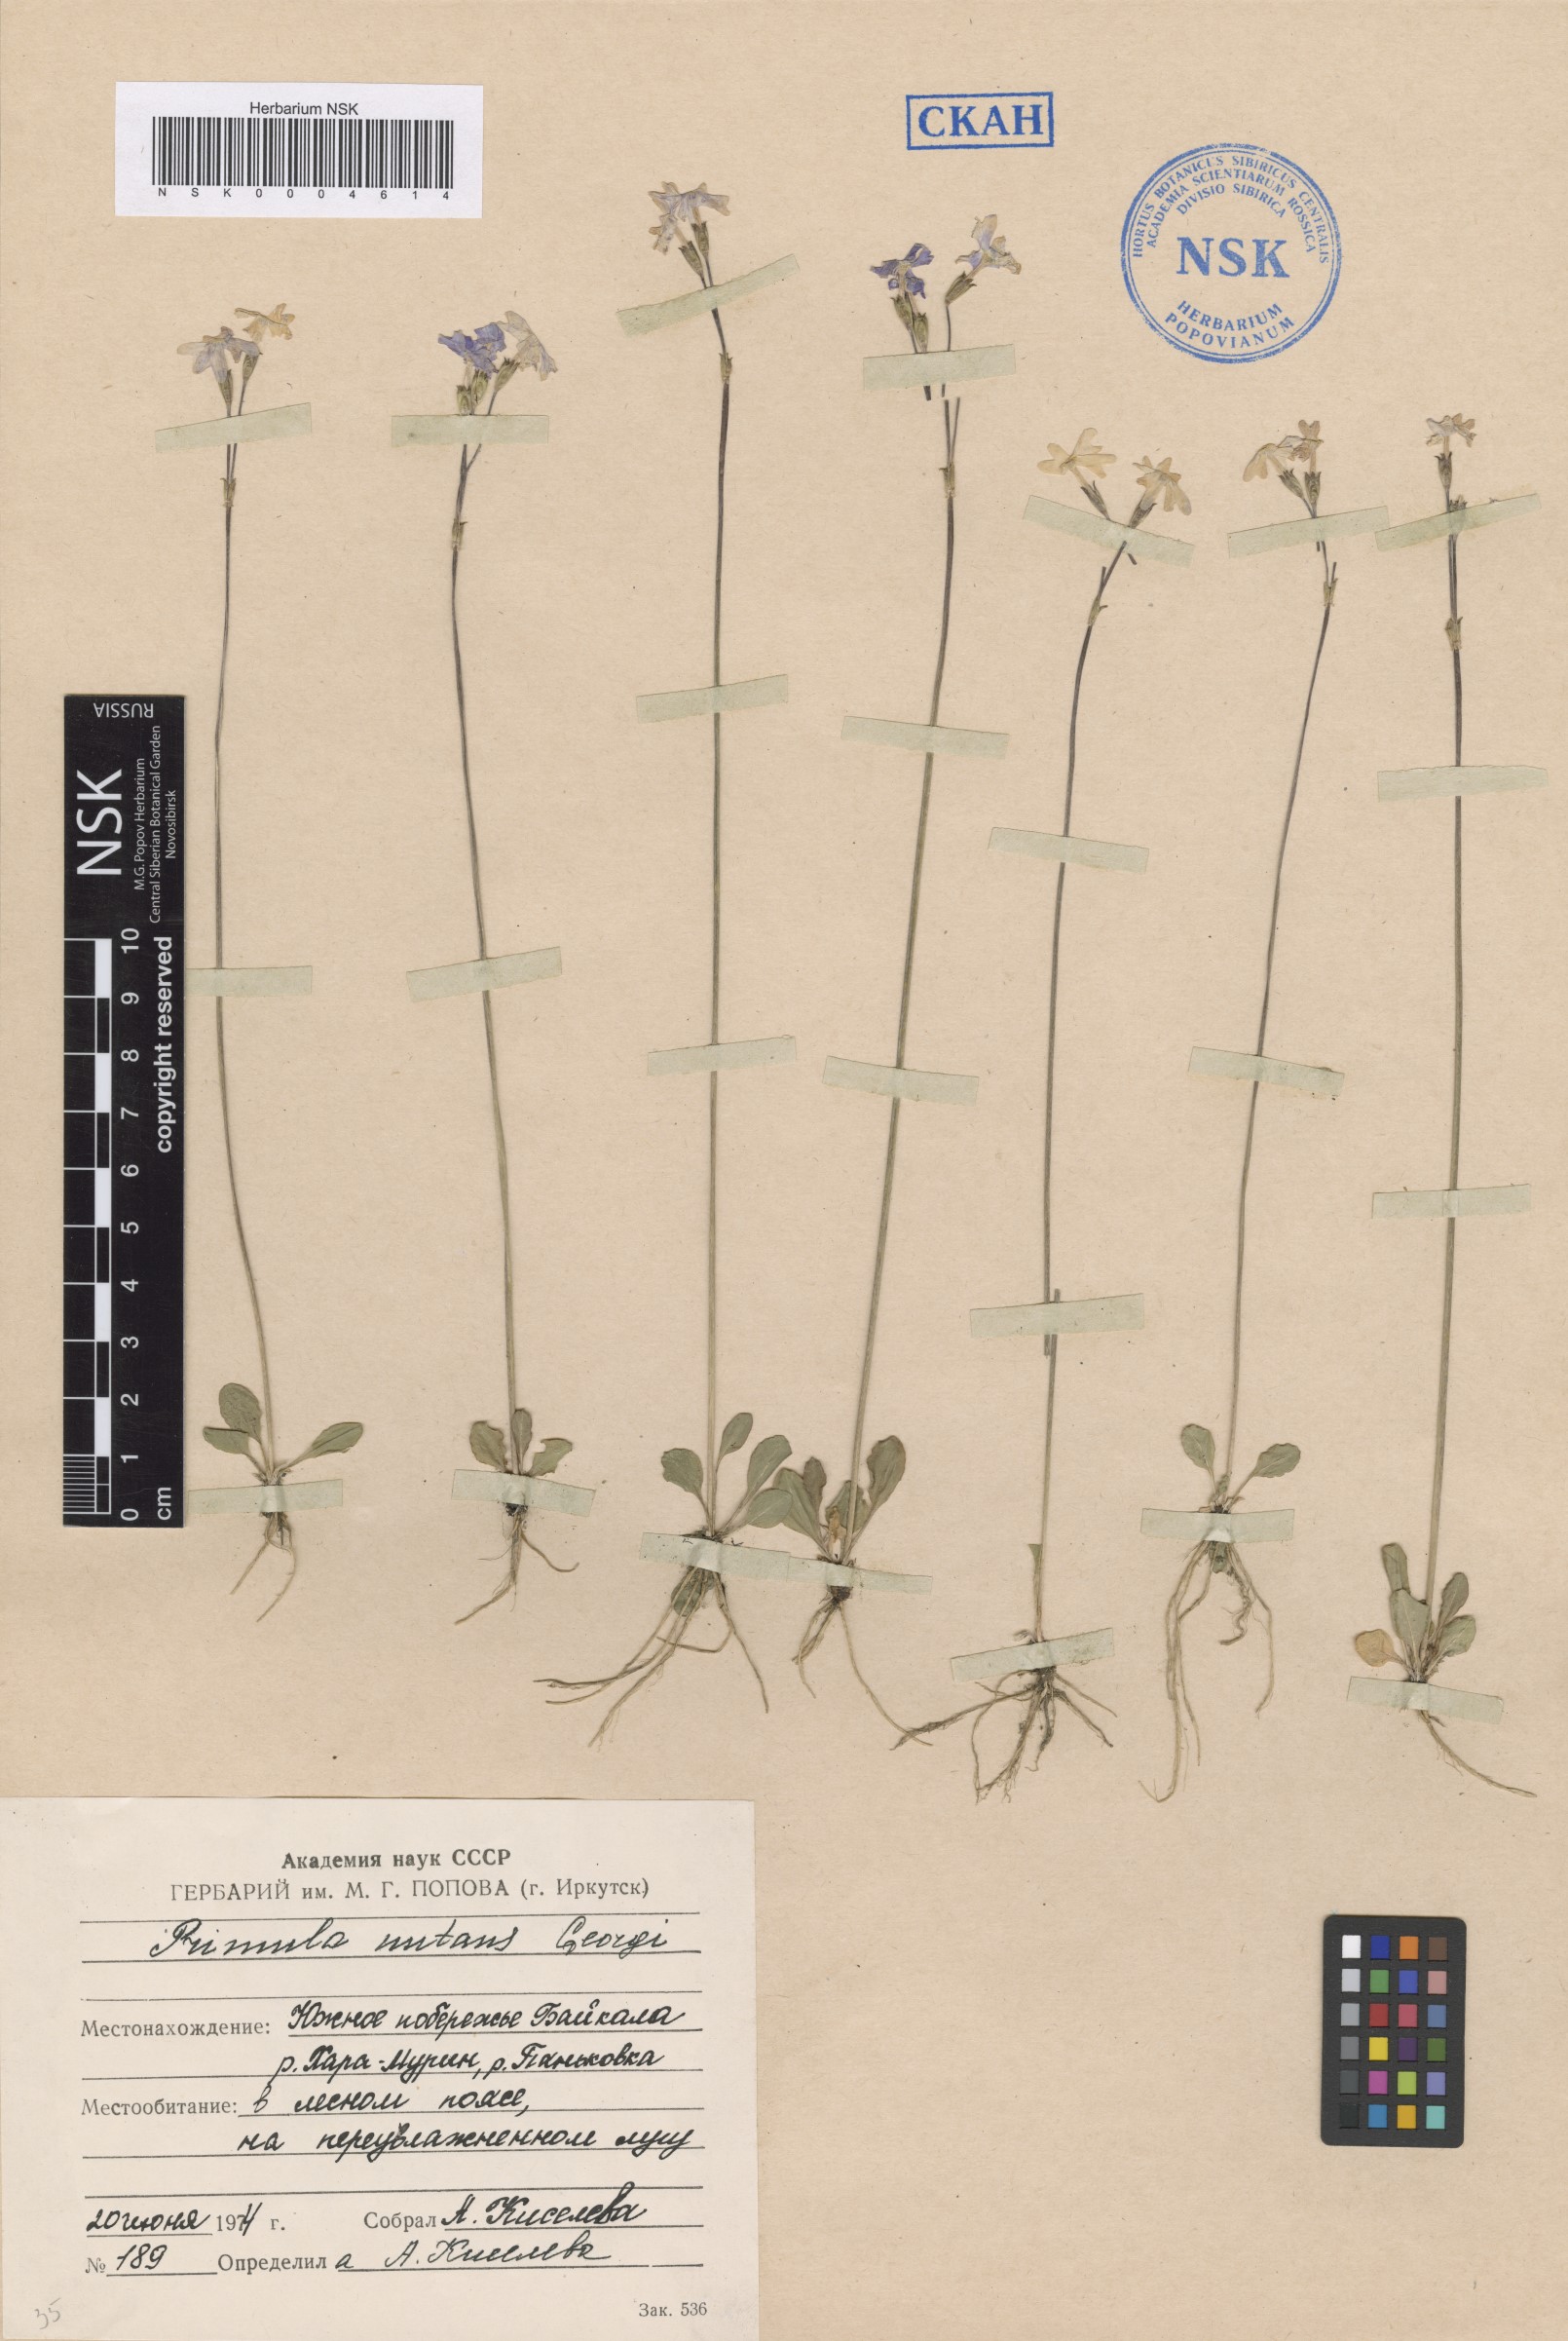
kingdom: Plantae
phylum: Tracheophyta
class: Magnoliopsida
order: Ericales
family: Primulaceae
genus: Primula
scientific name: Primula nutans
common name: Siberian primrose
